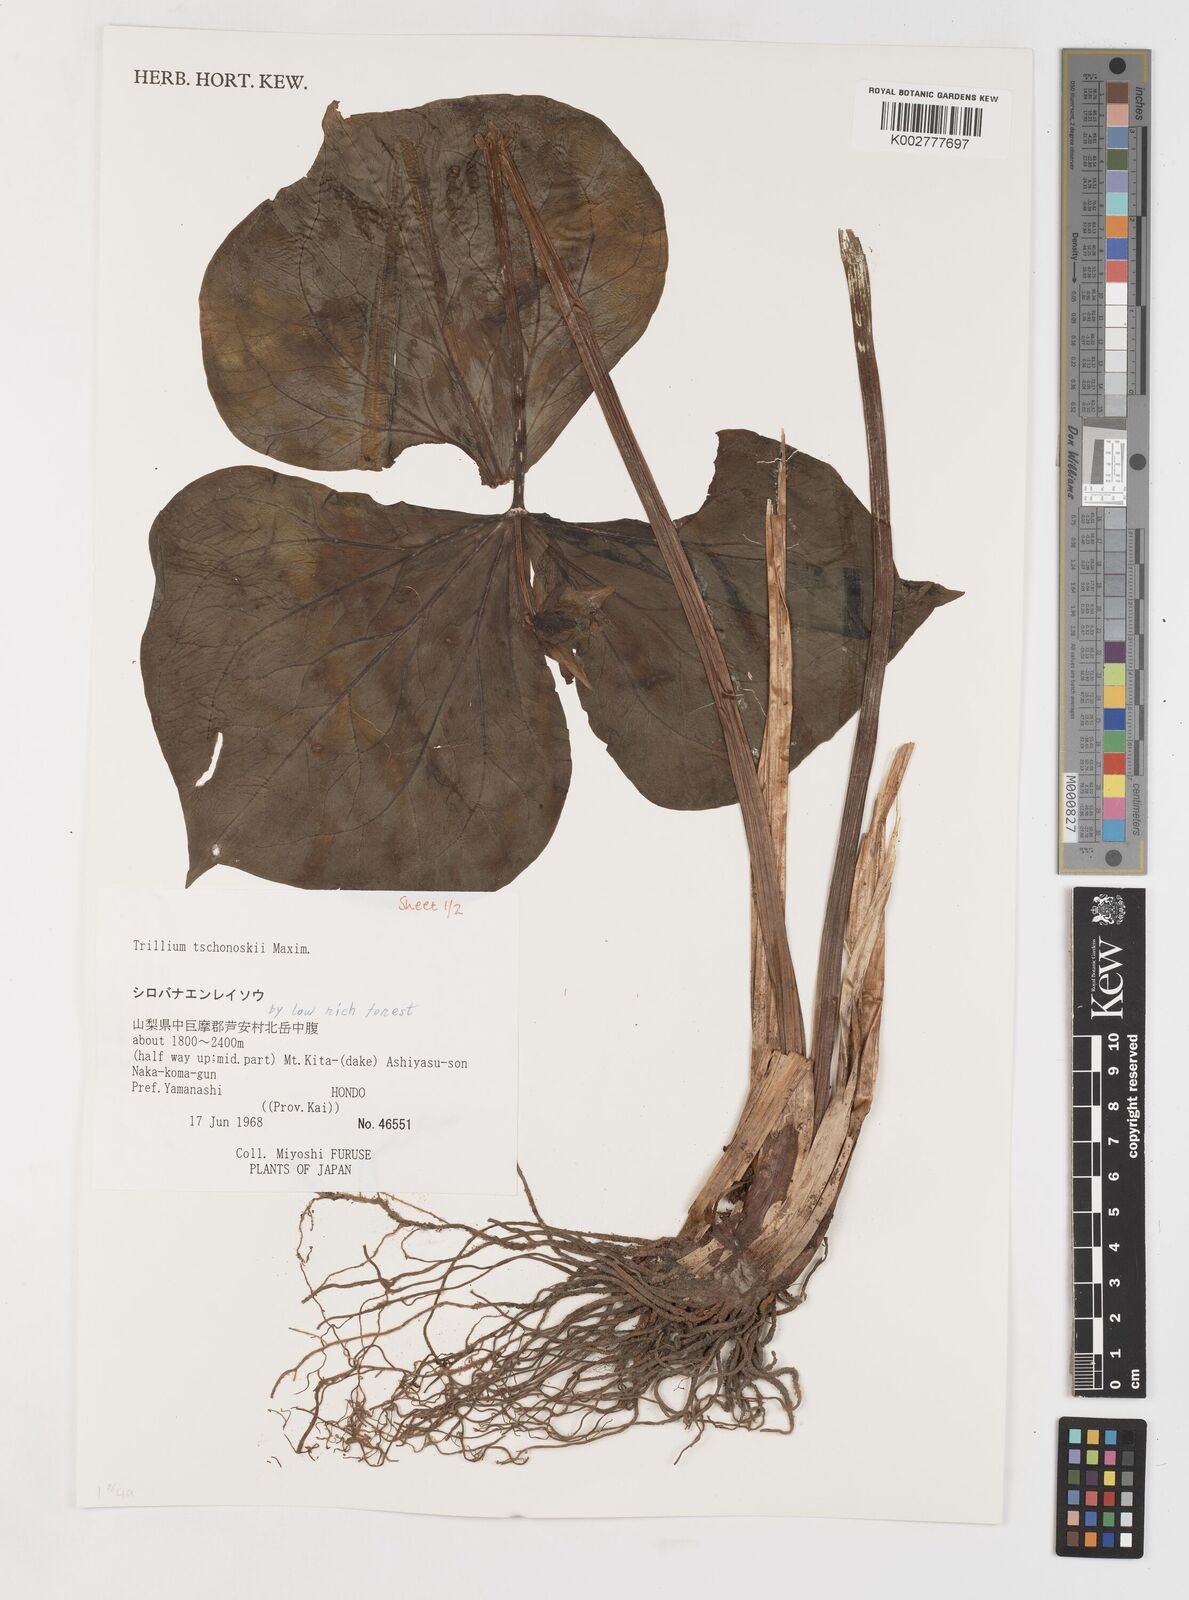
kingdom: Plantae
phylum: Tracheophyta
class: Liliopsida
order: Liliales
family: Melanthiaceae
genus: Trillium
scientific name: Trillium tschonoskii
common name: A pearl on head
